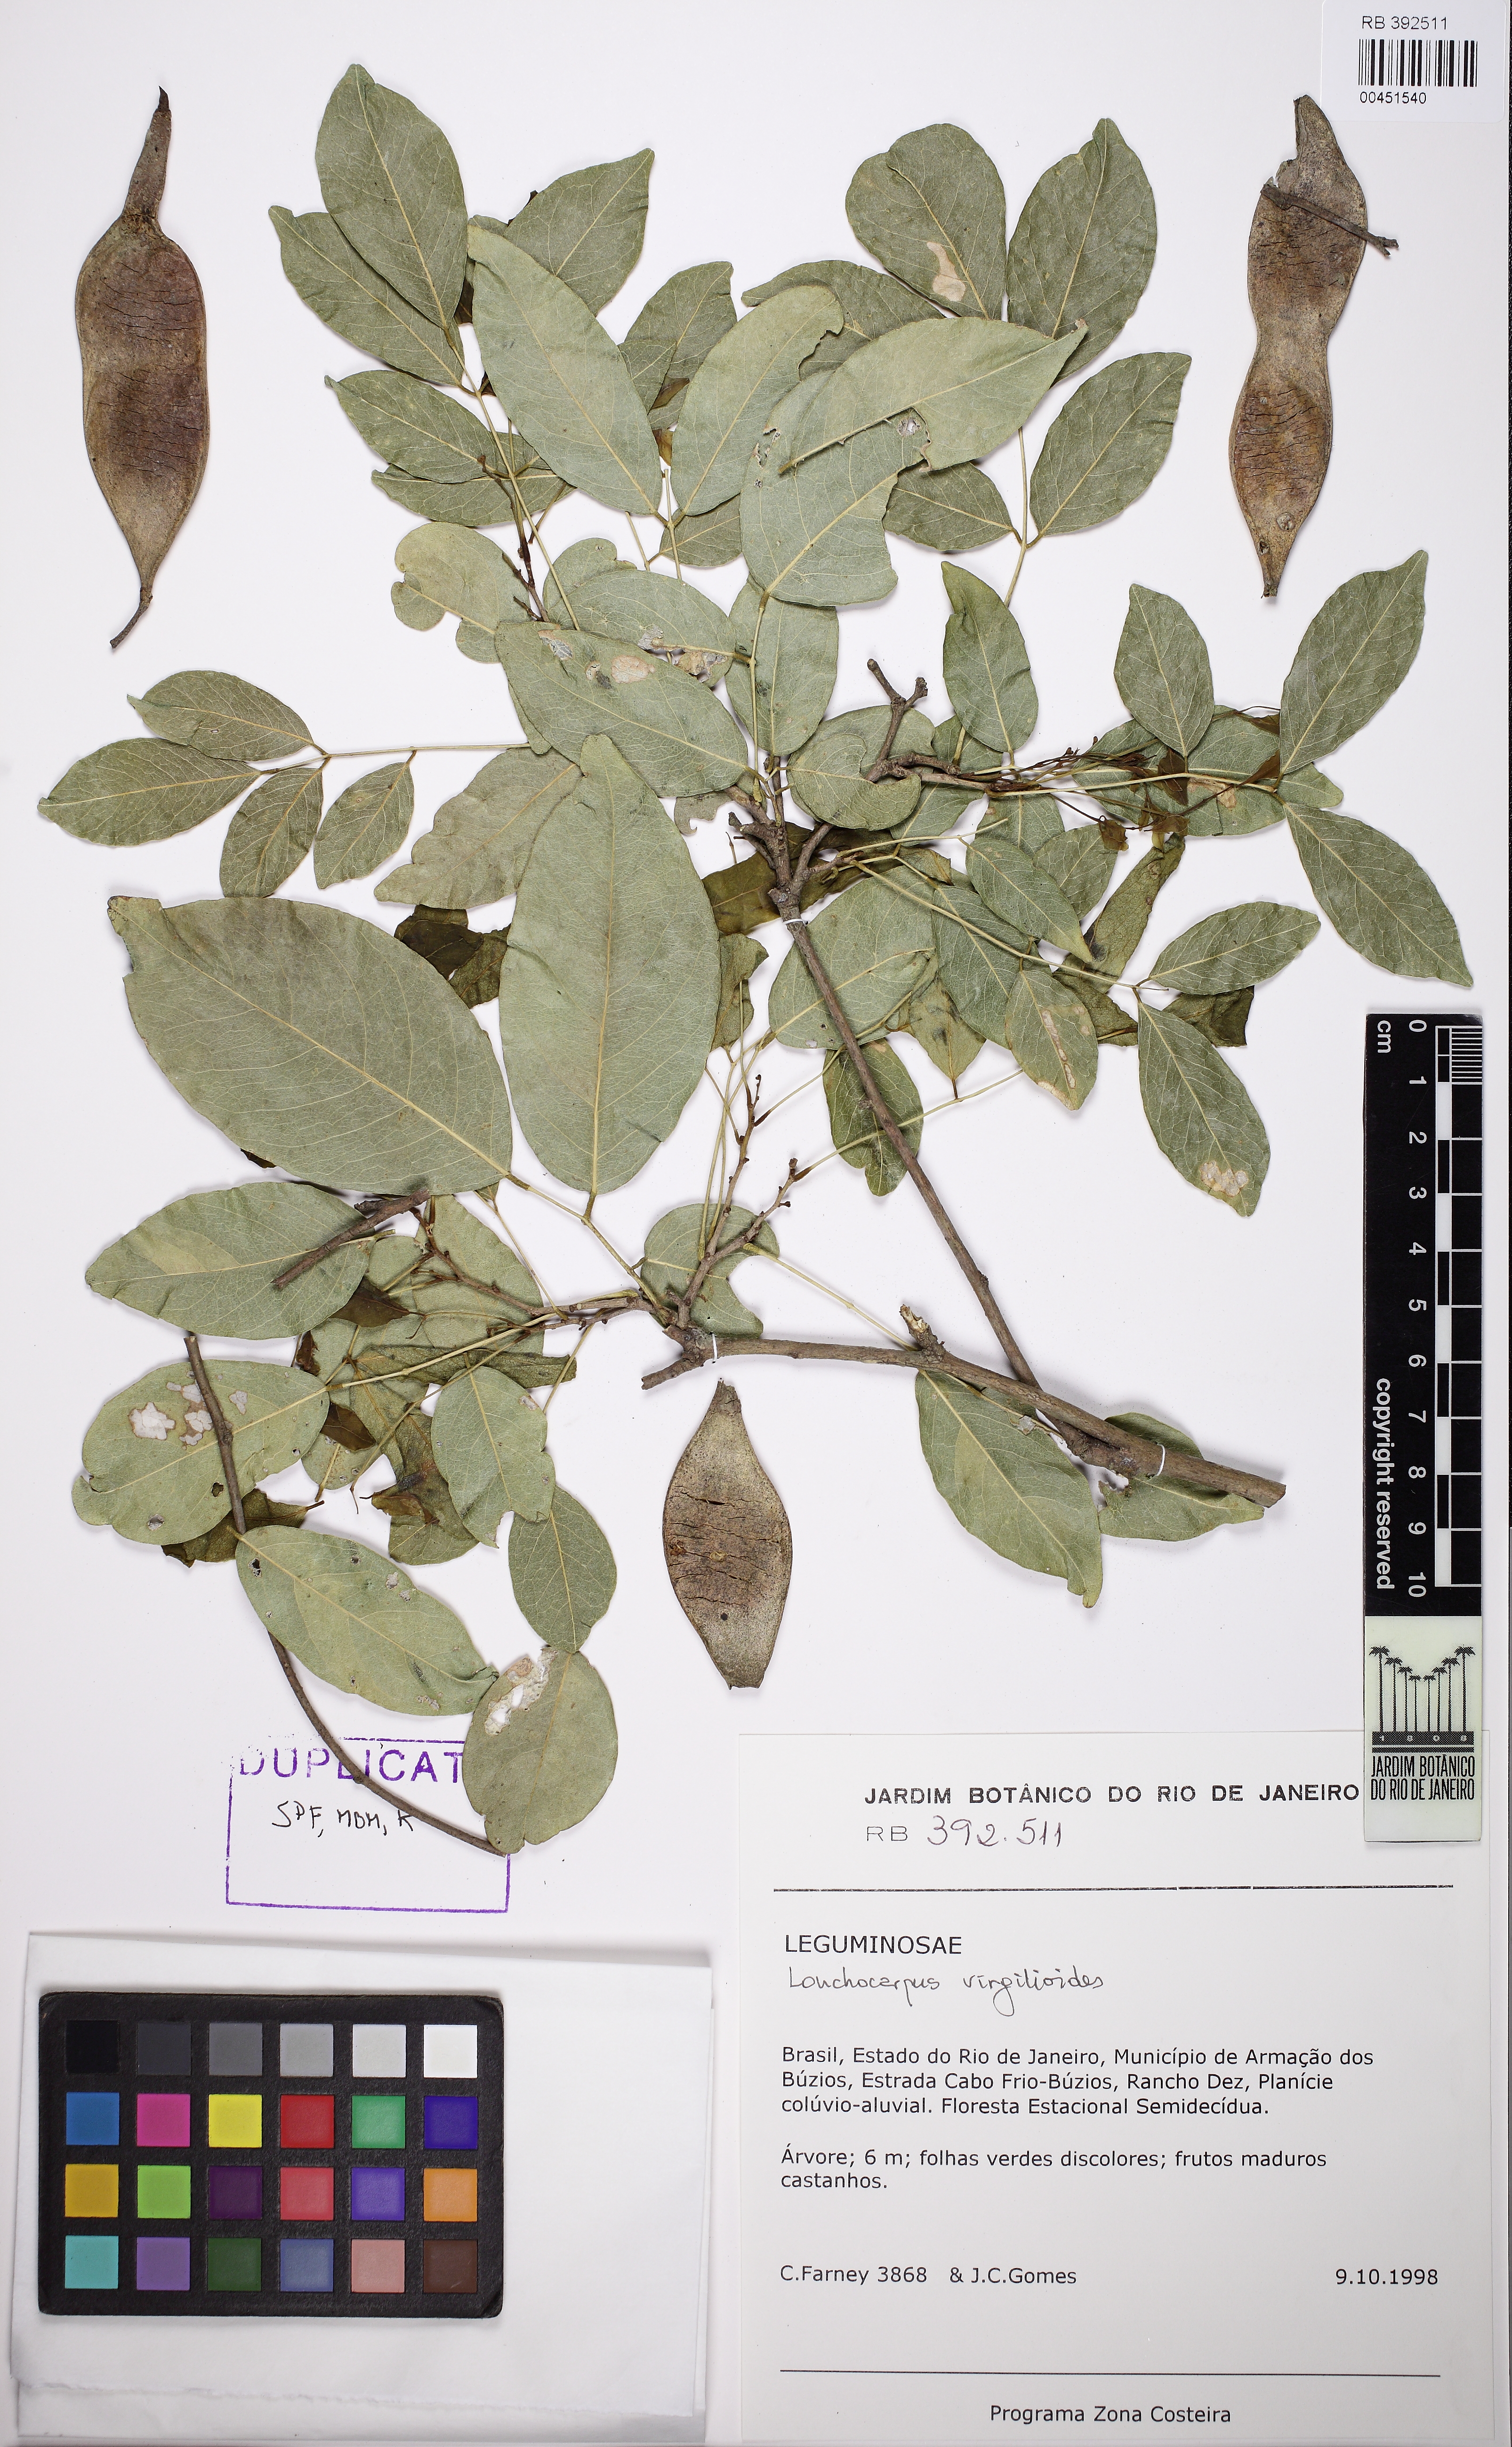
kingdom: Plantae
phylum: Tracheophyta
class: Magnoliopsida
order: Fabales
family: Fabaceae
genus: Muellera
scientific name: Muellera virgilioides
